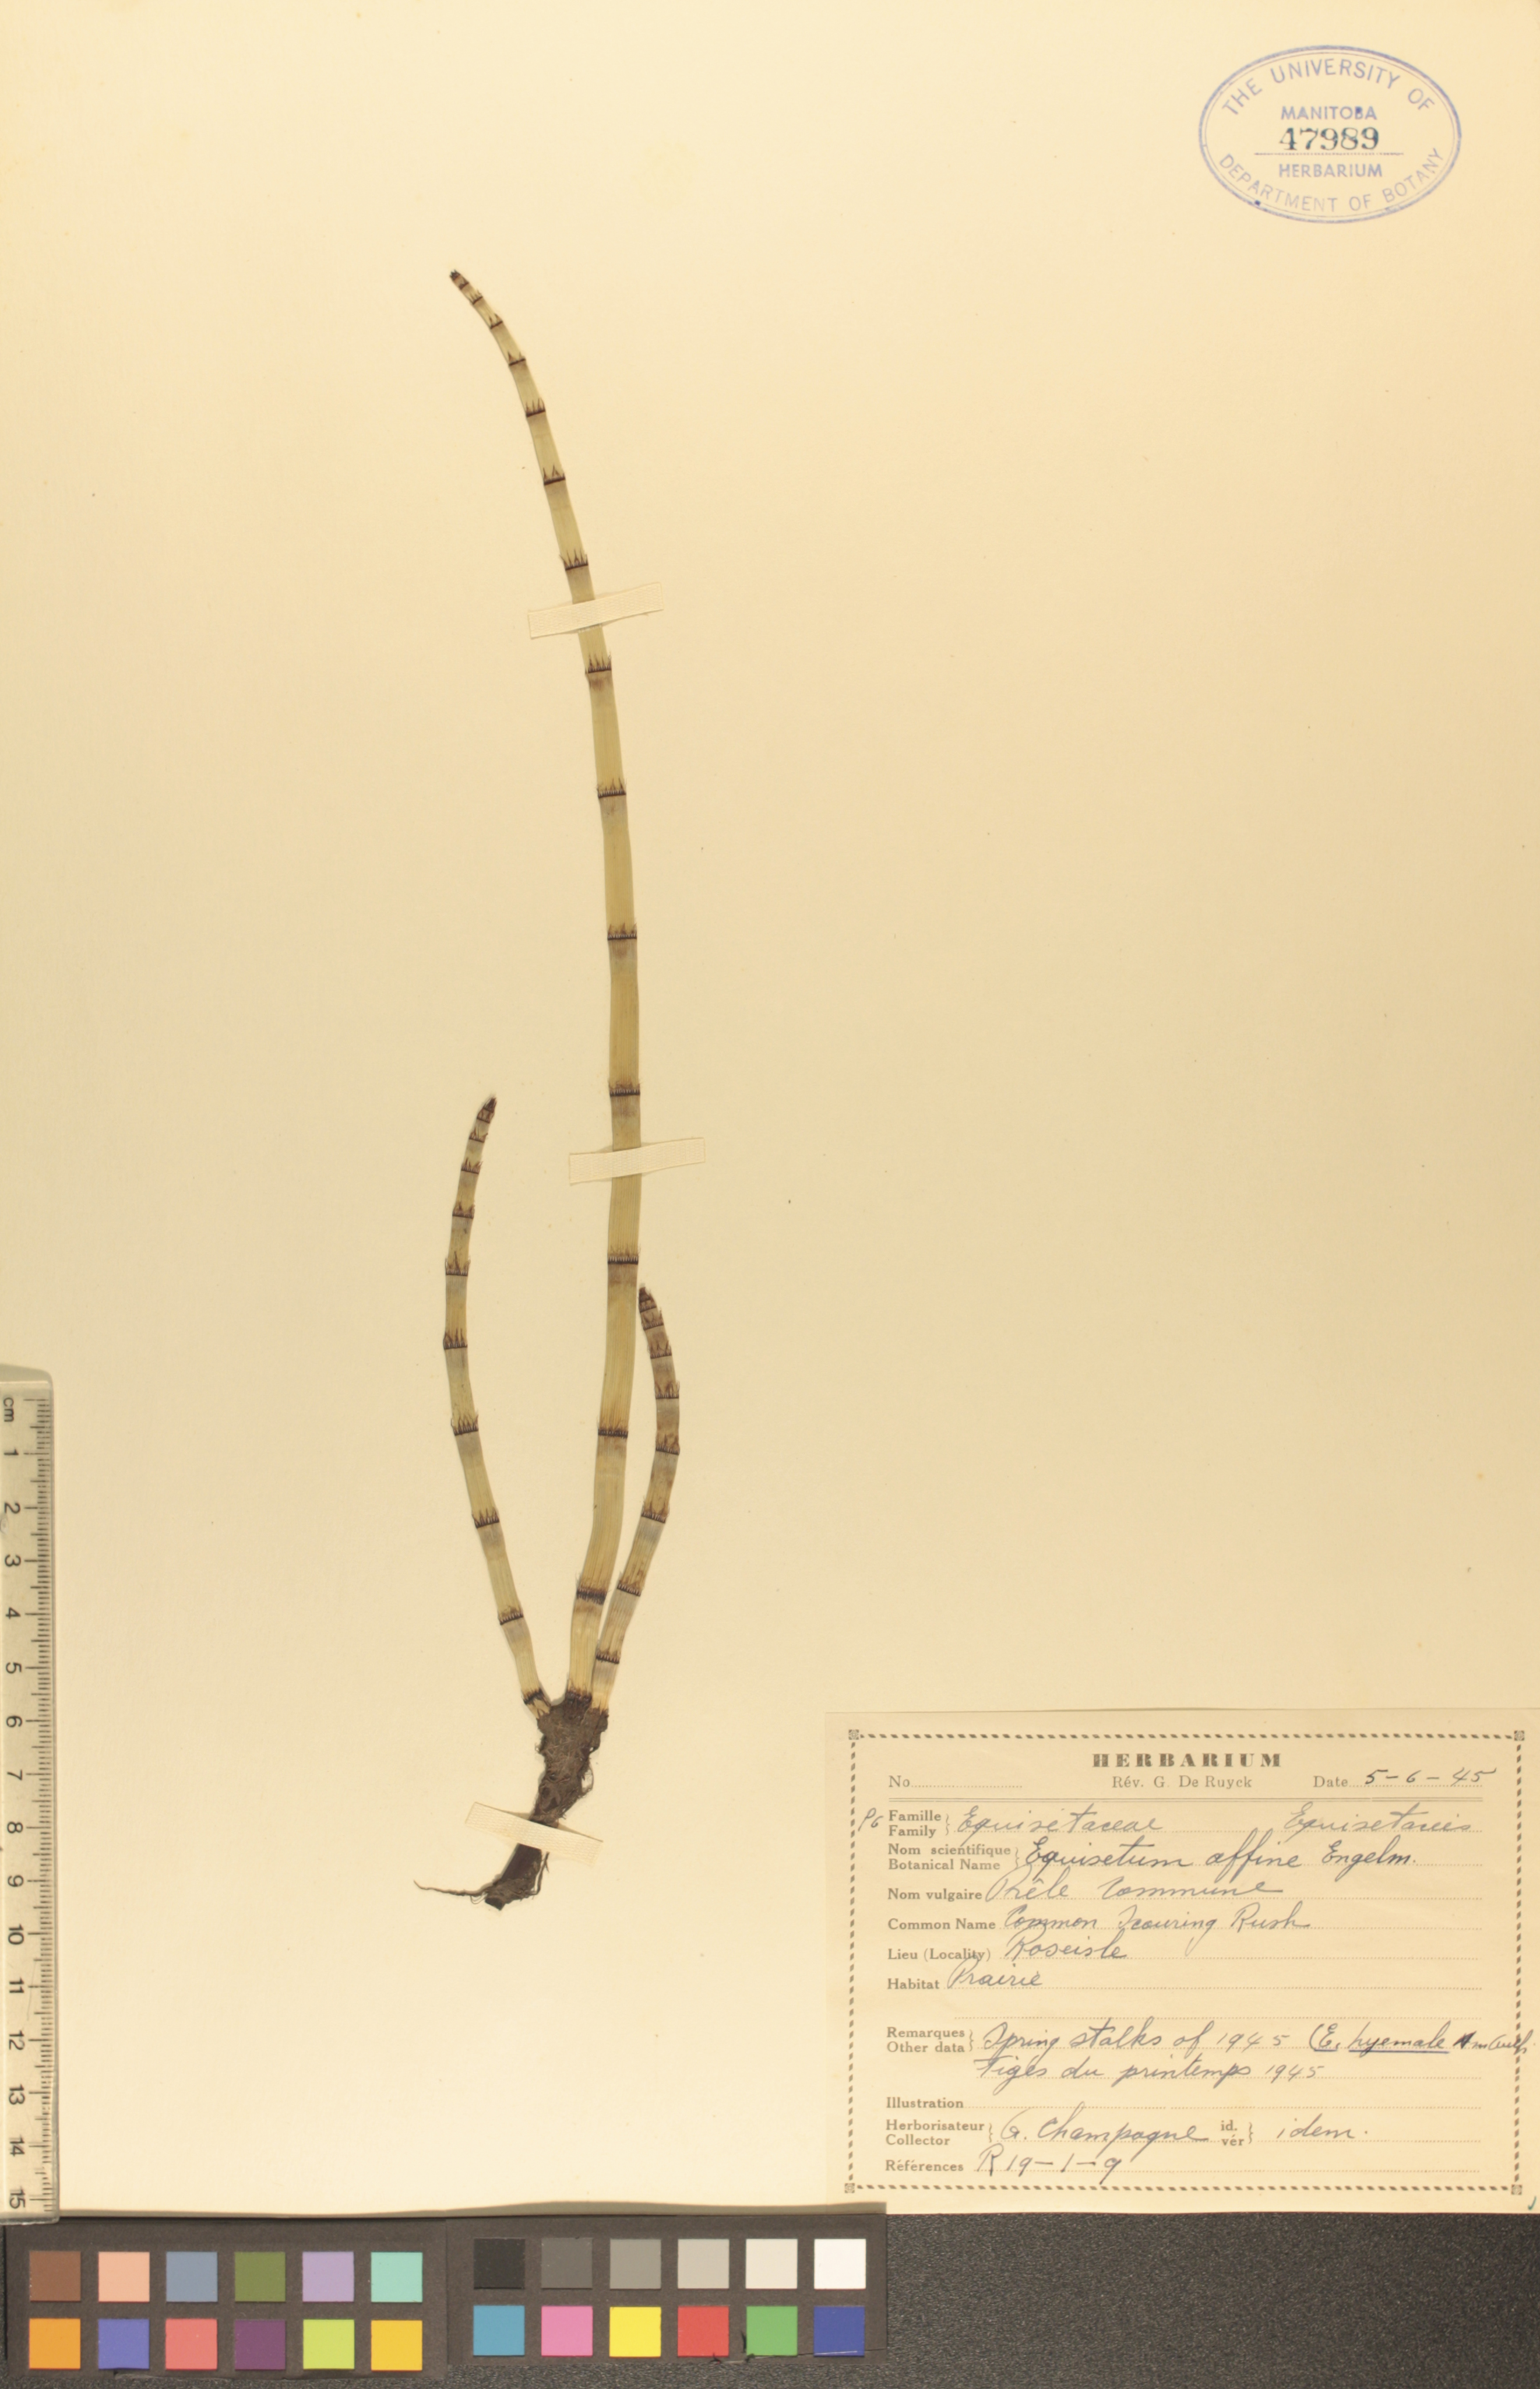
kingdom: Plantae
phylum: Tracheophyta
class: Polypodiopsida
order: Equisetales
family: Equisetaceae
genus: Equisetum
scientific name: Equisetum praealtum
